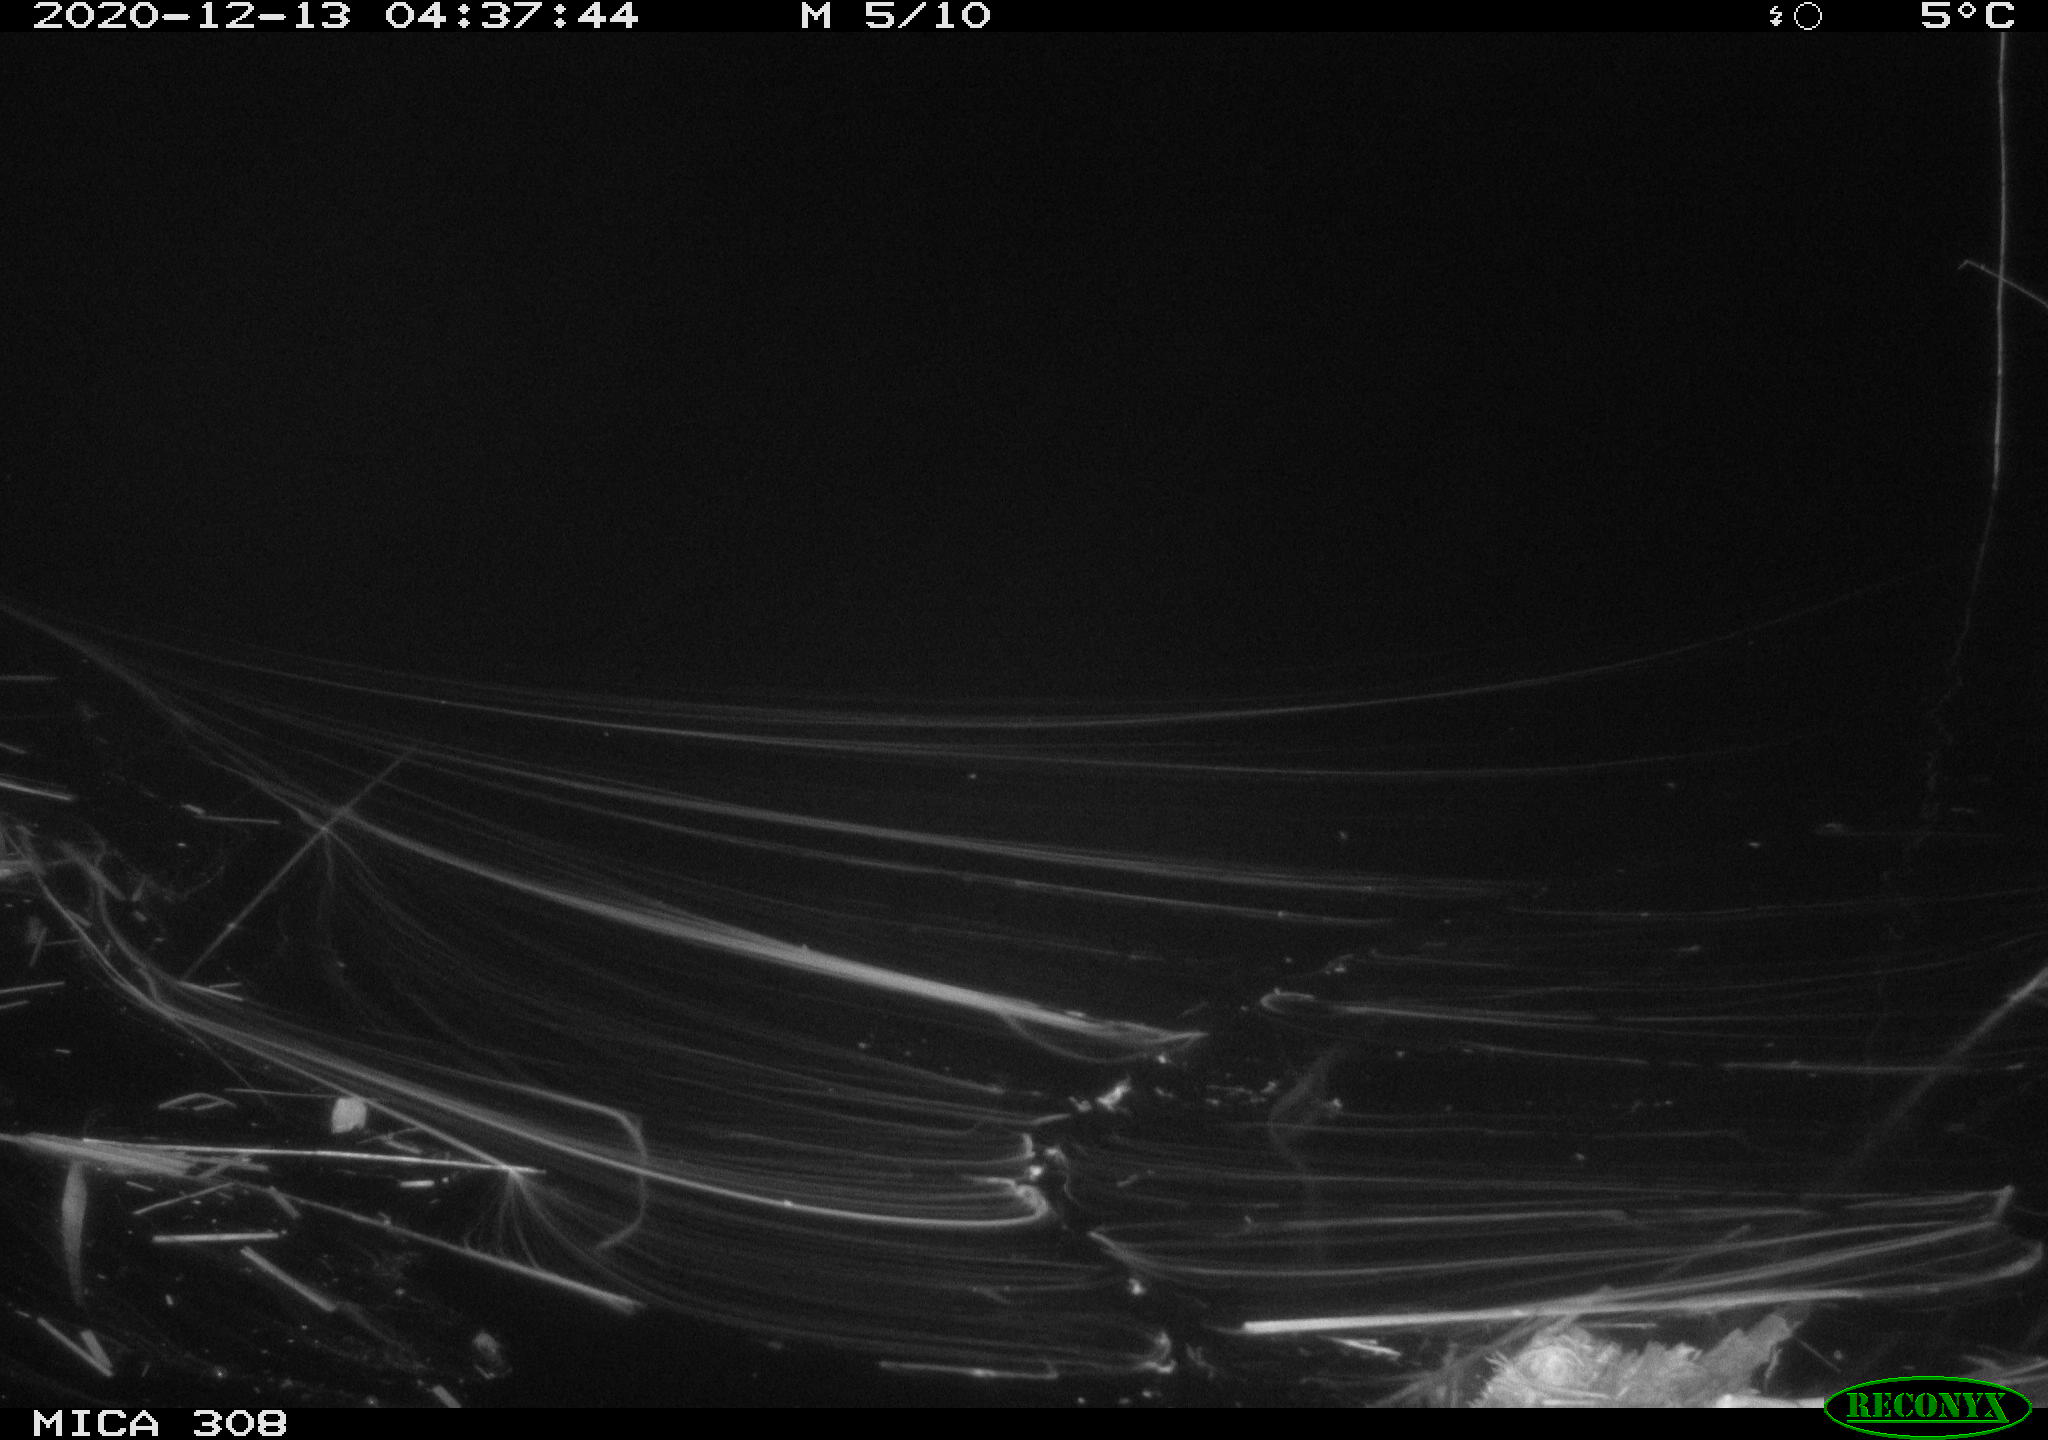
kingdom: Animalia
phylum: Chordata
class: Aves
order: Anseriformes
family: Anatidae
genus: Anas
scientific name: Anas platyrhynchos
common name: Mallard
